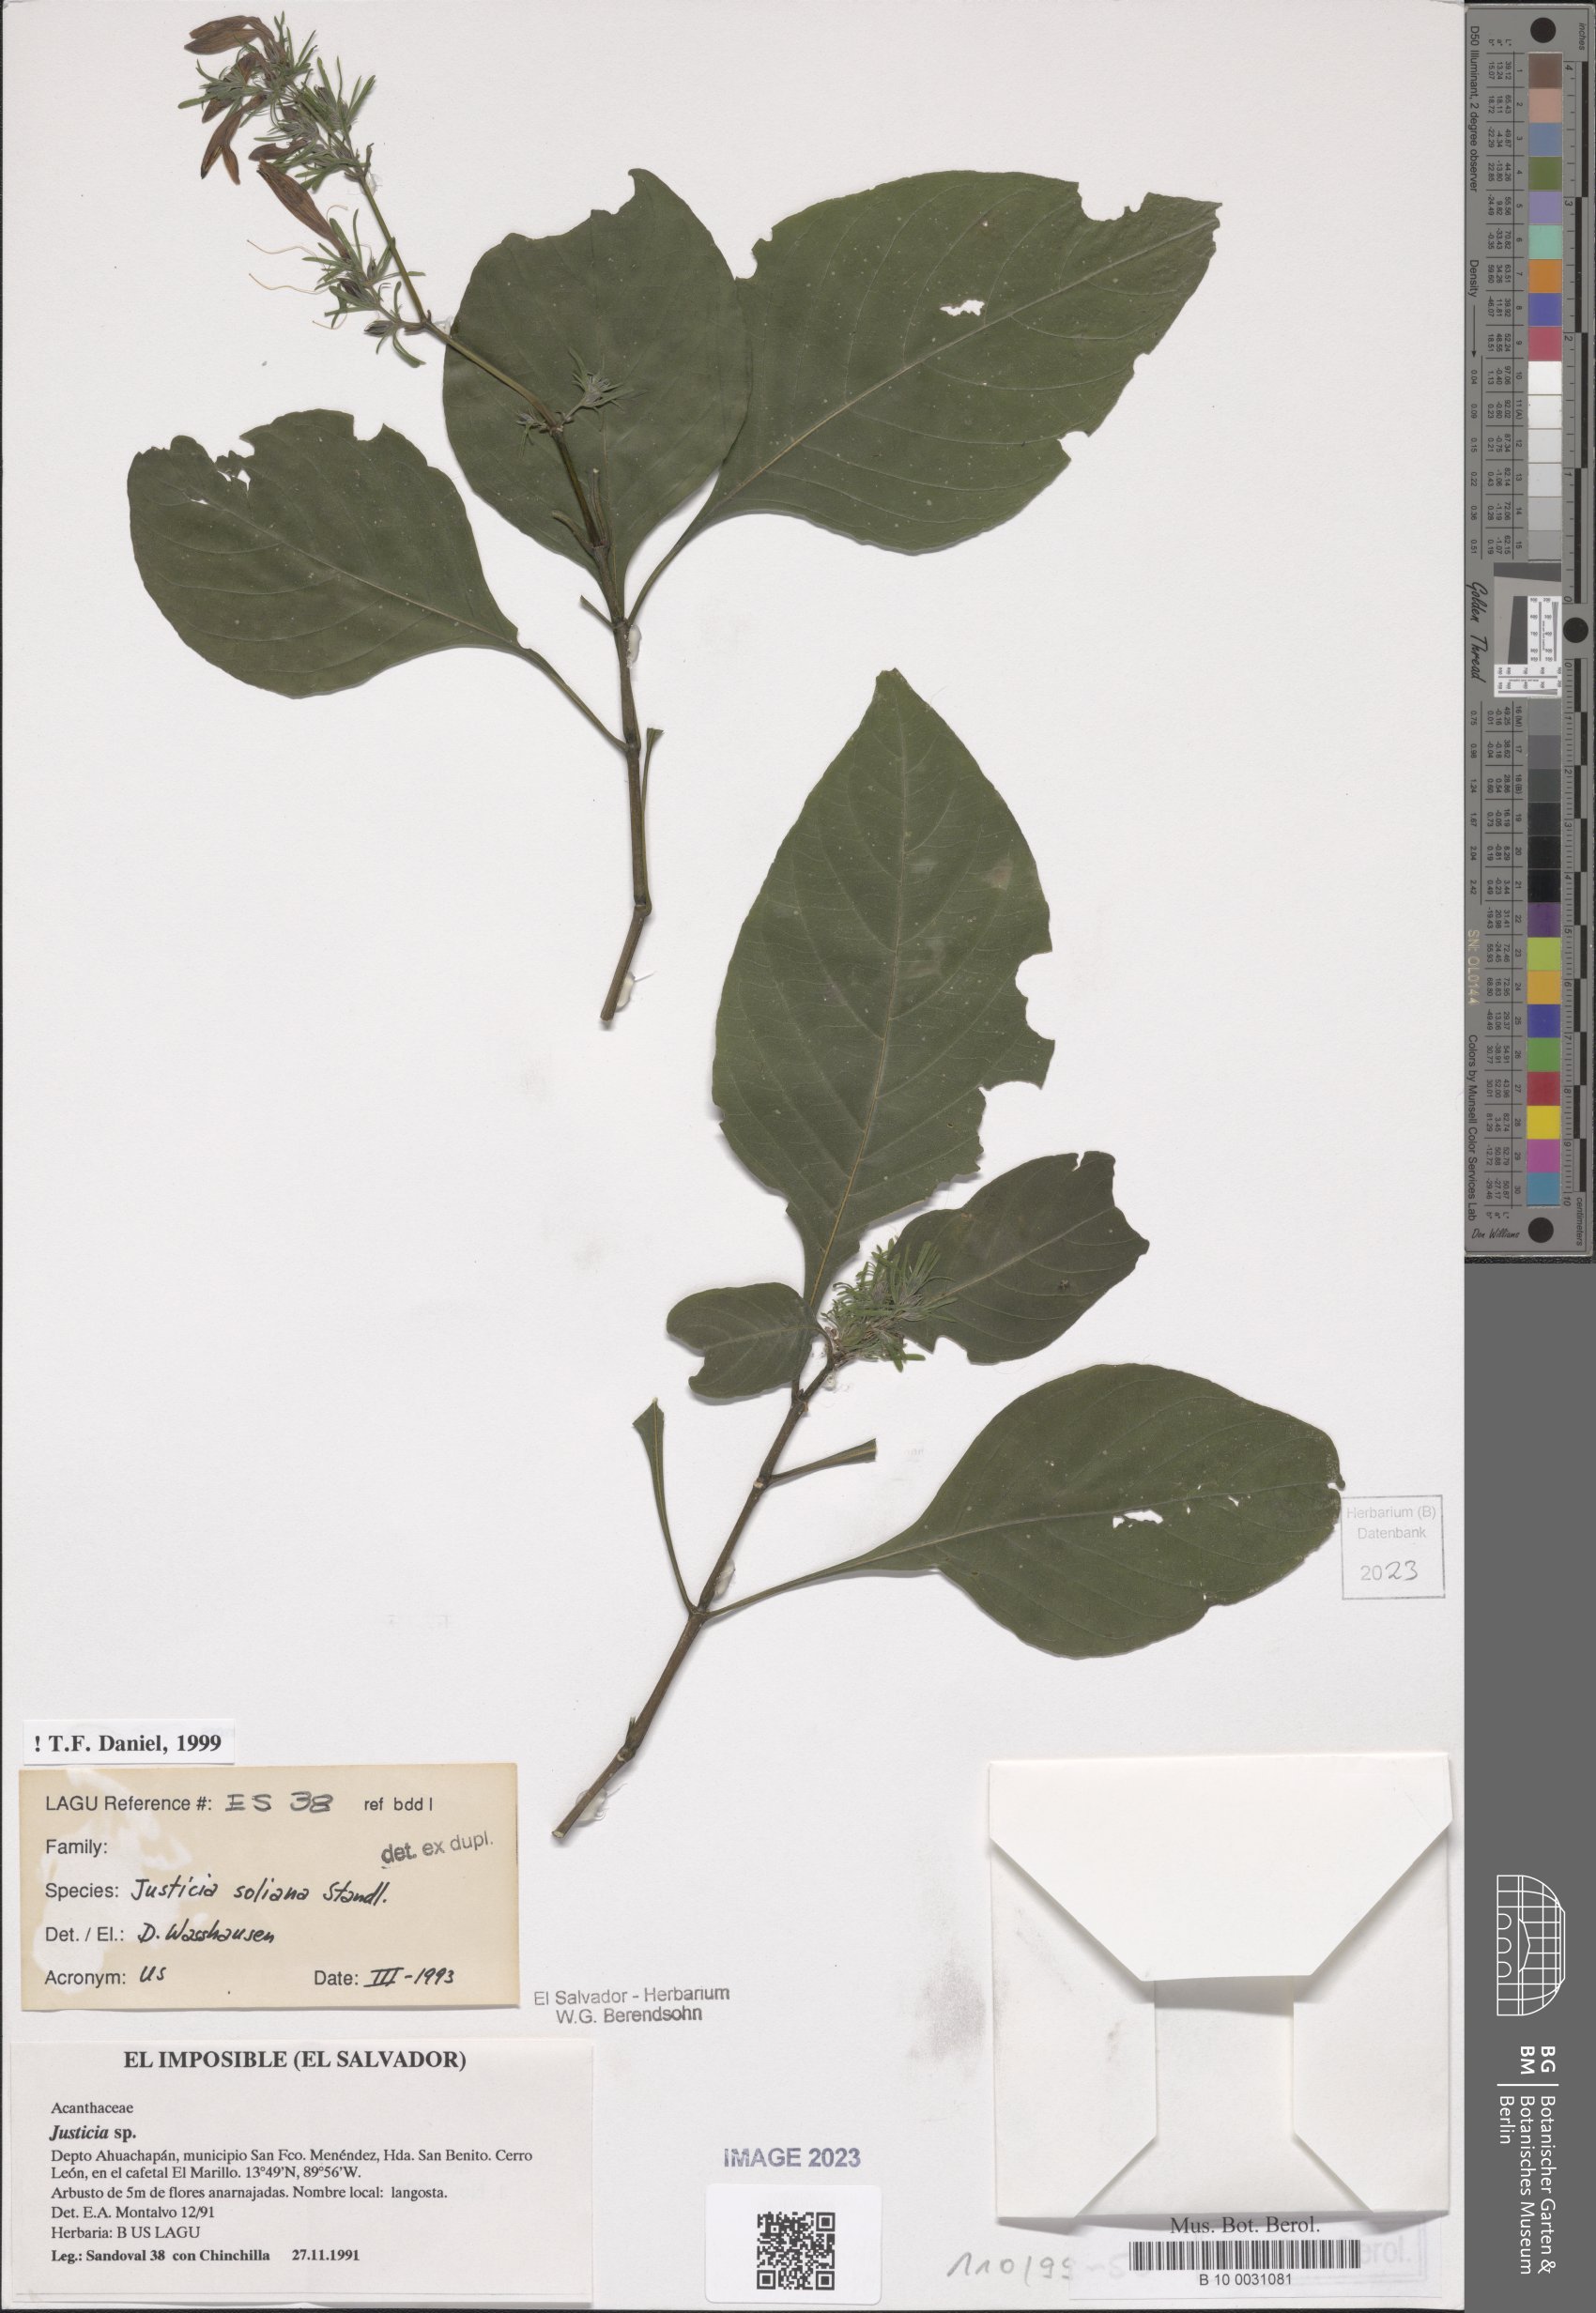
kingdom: Plantae
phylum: Tracheophyta
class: Magnoliopsida
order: Lamiales
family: Acanthaceae
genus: Justicia
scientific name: Justicia soliana
